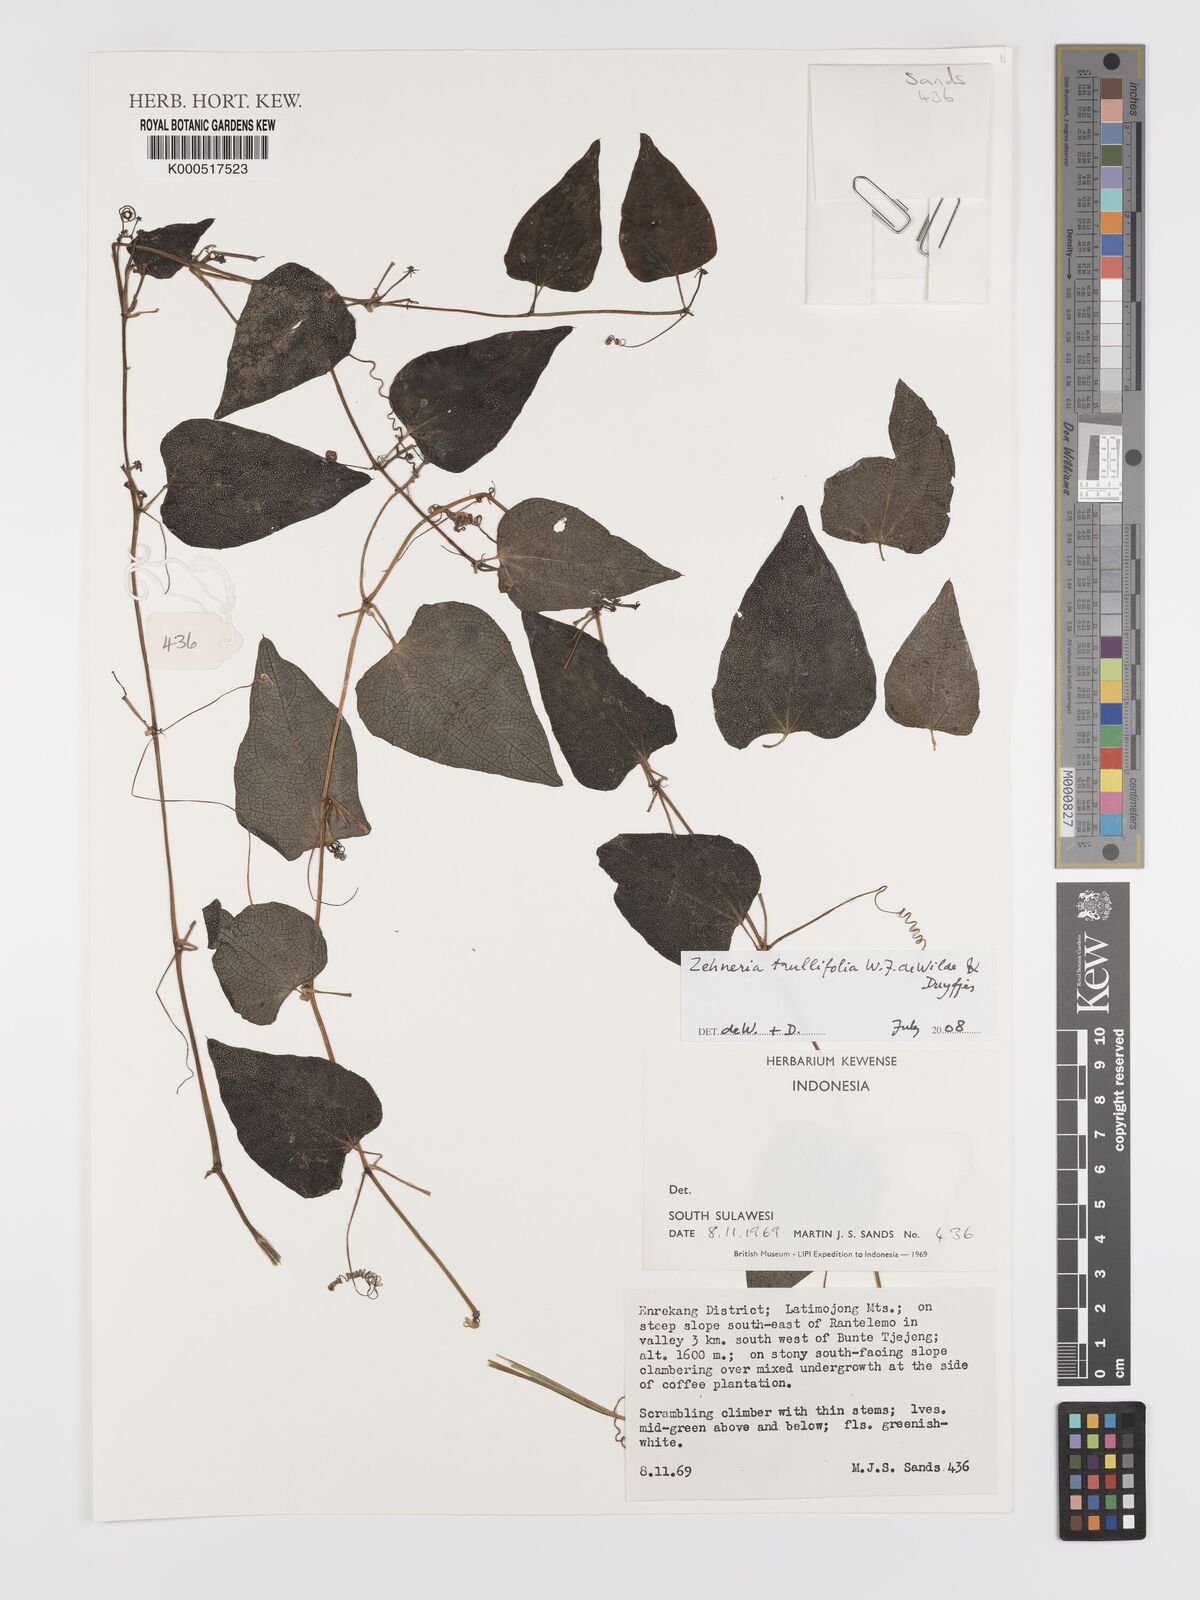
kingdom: Plantae
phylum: Tracheophyta
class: Magnoliopsida
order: Cucurbitales
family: Cucurbitaceae
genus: Zehneria
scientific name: Zehneria trullifolia
